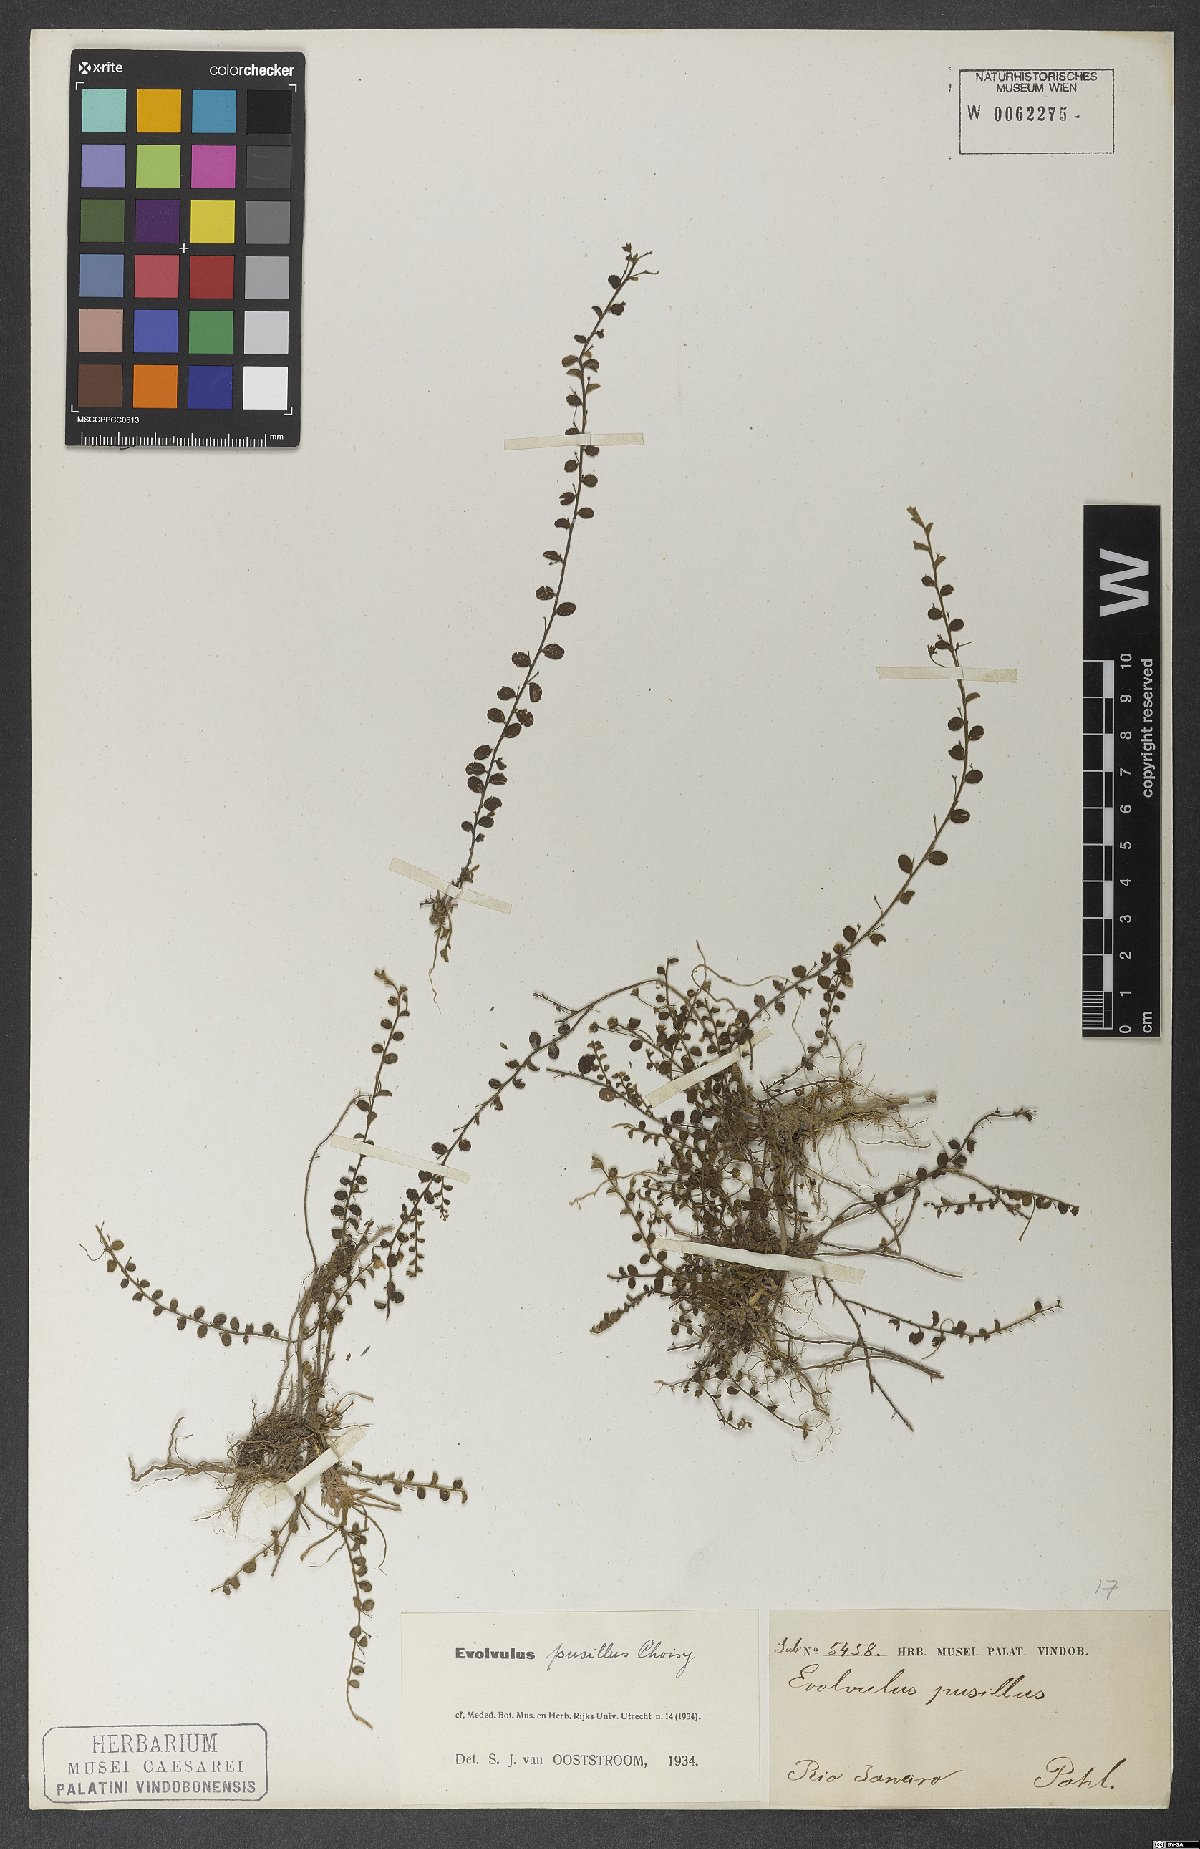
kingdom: Plantae
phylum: Tracheophyta
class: Magnoliopsida
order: Solanales
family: Convolvulaceae
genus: Evolvulus
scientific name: Evolvulus pusillus
